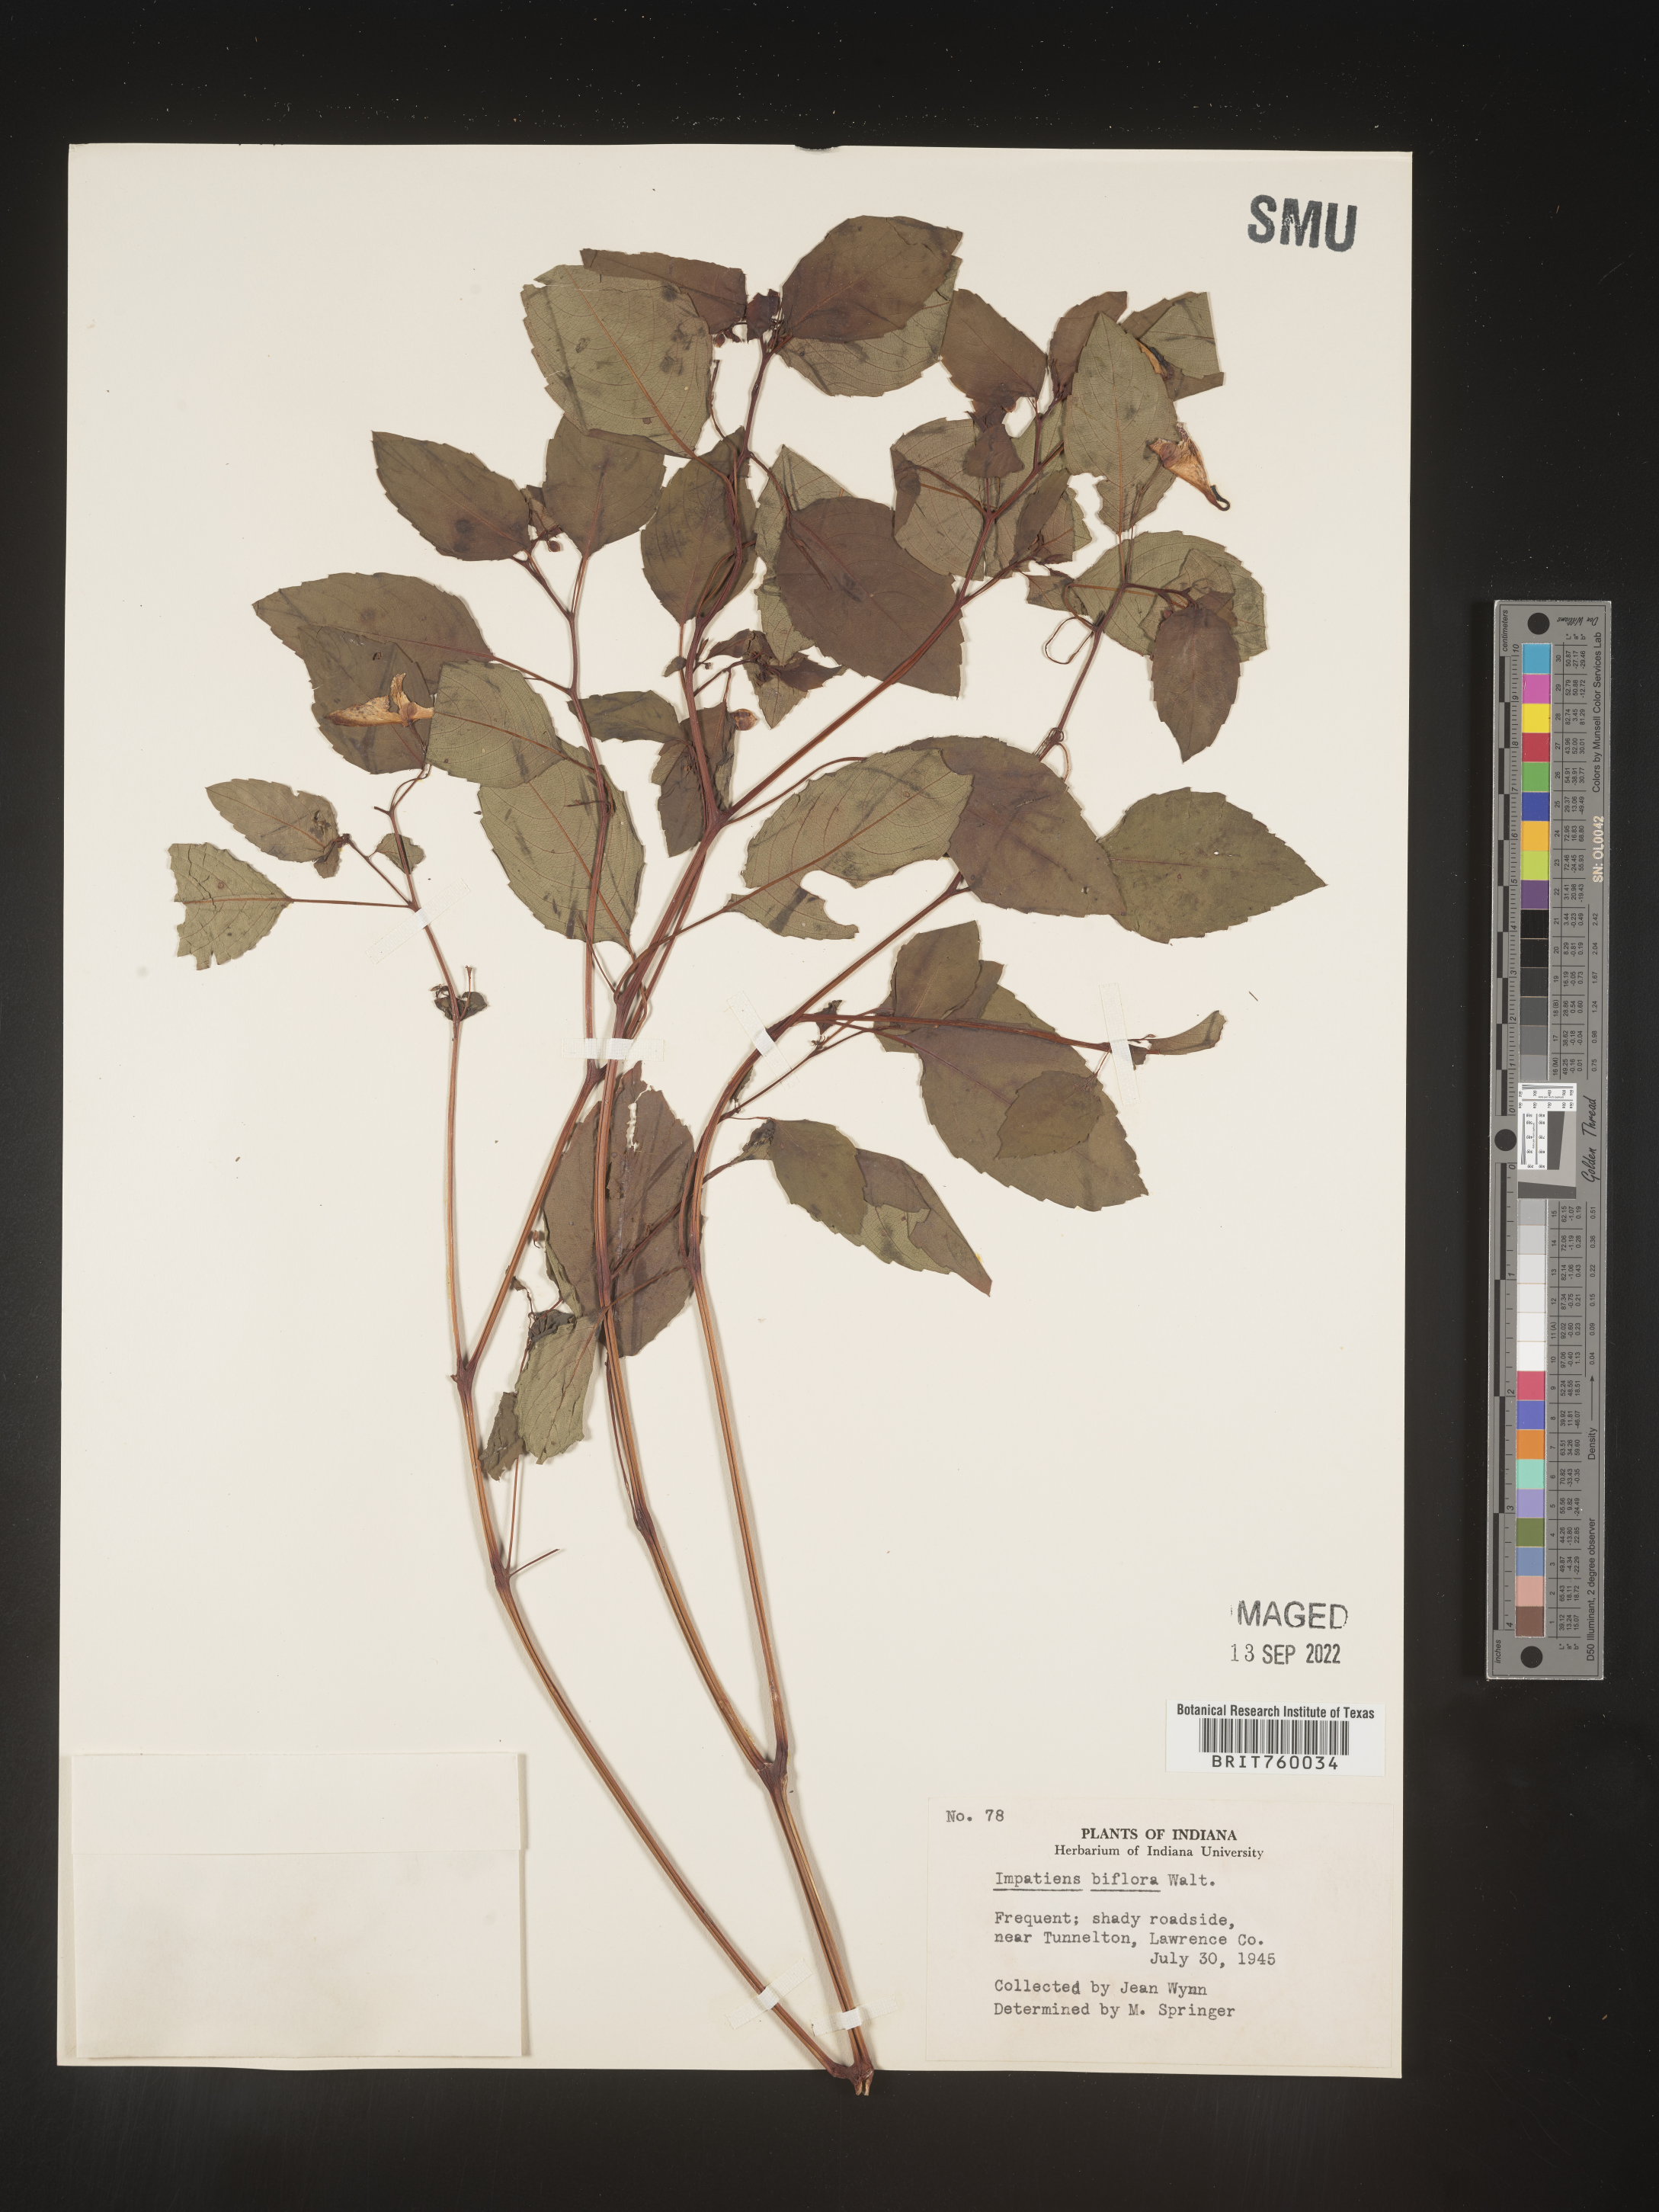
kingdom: Plantae
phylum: Tracheophyta
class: Magnoliopsida
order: Ericales
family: Balsaminaceae
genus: Impatiens
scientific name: Impatiens capensis
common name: Orange balsam
